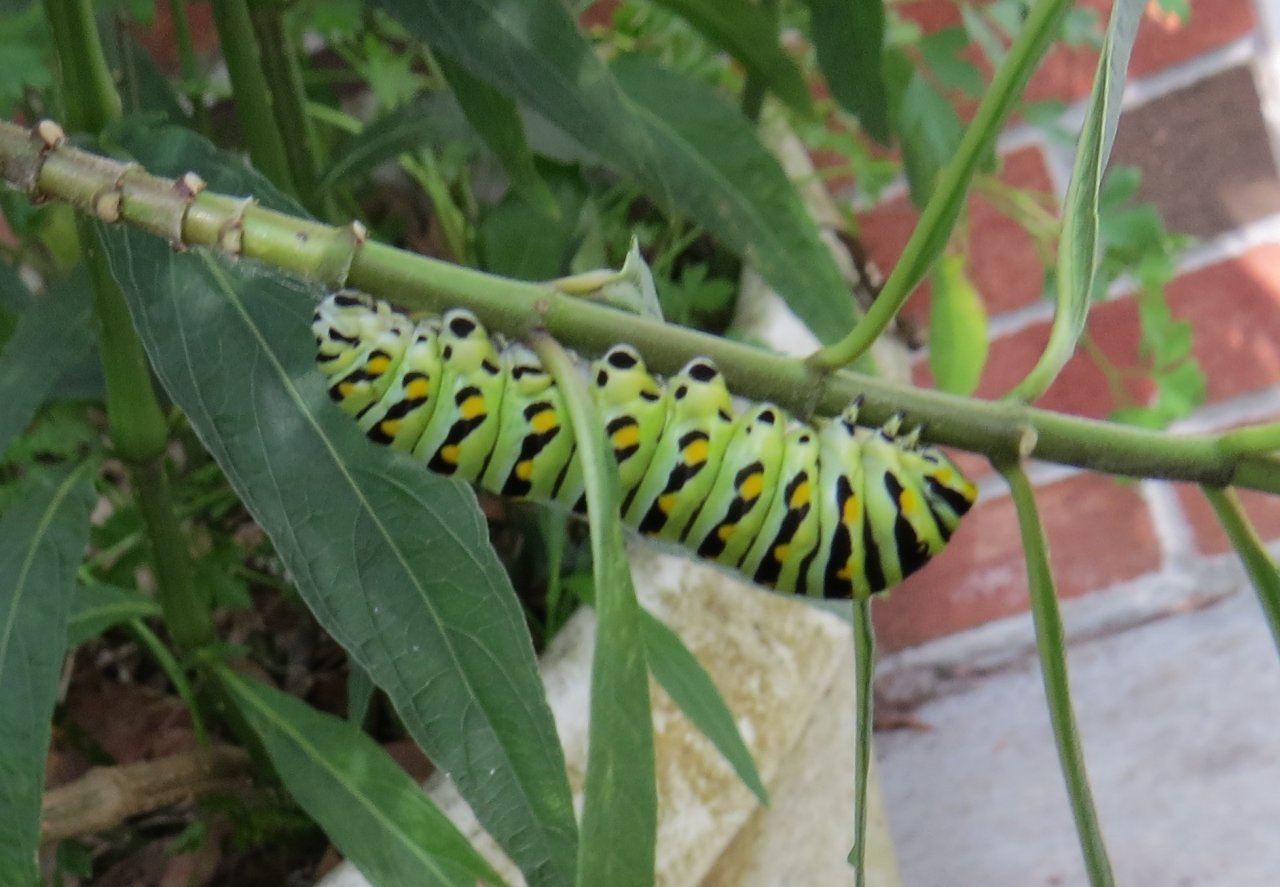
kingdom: Animalia
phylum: Arthropoda
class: Insecta
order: Lepidoptera
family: Papilionidae
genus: Papilio
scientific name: Papilio polyxenes
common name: Black Swallowtail
